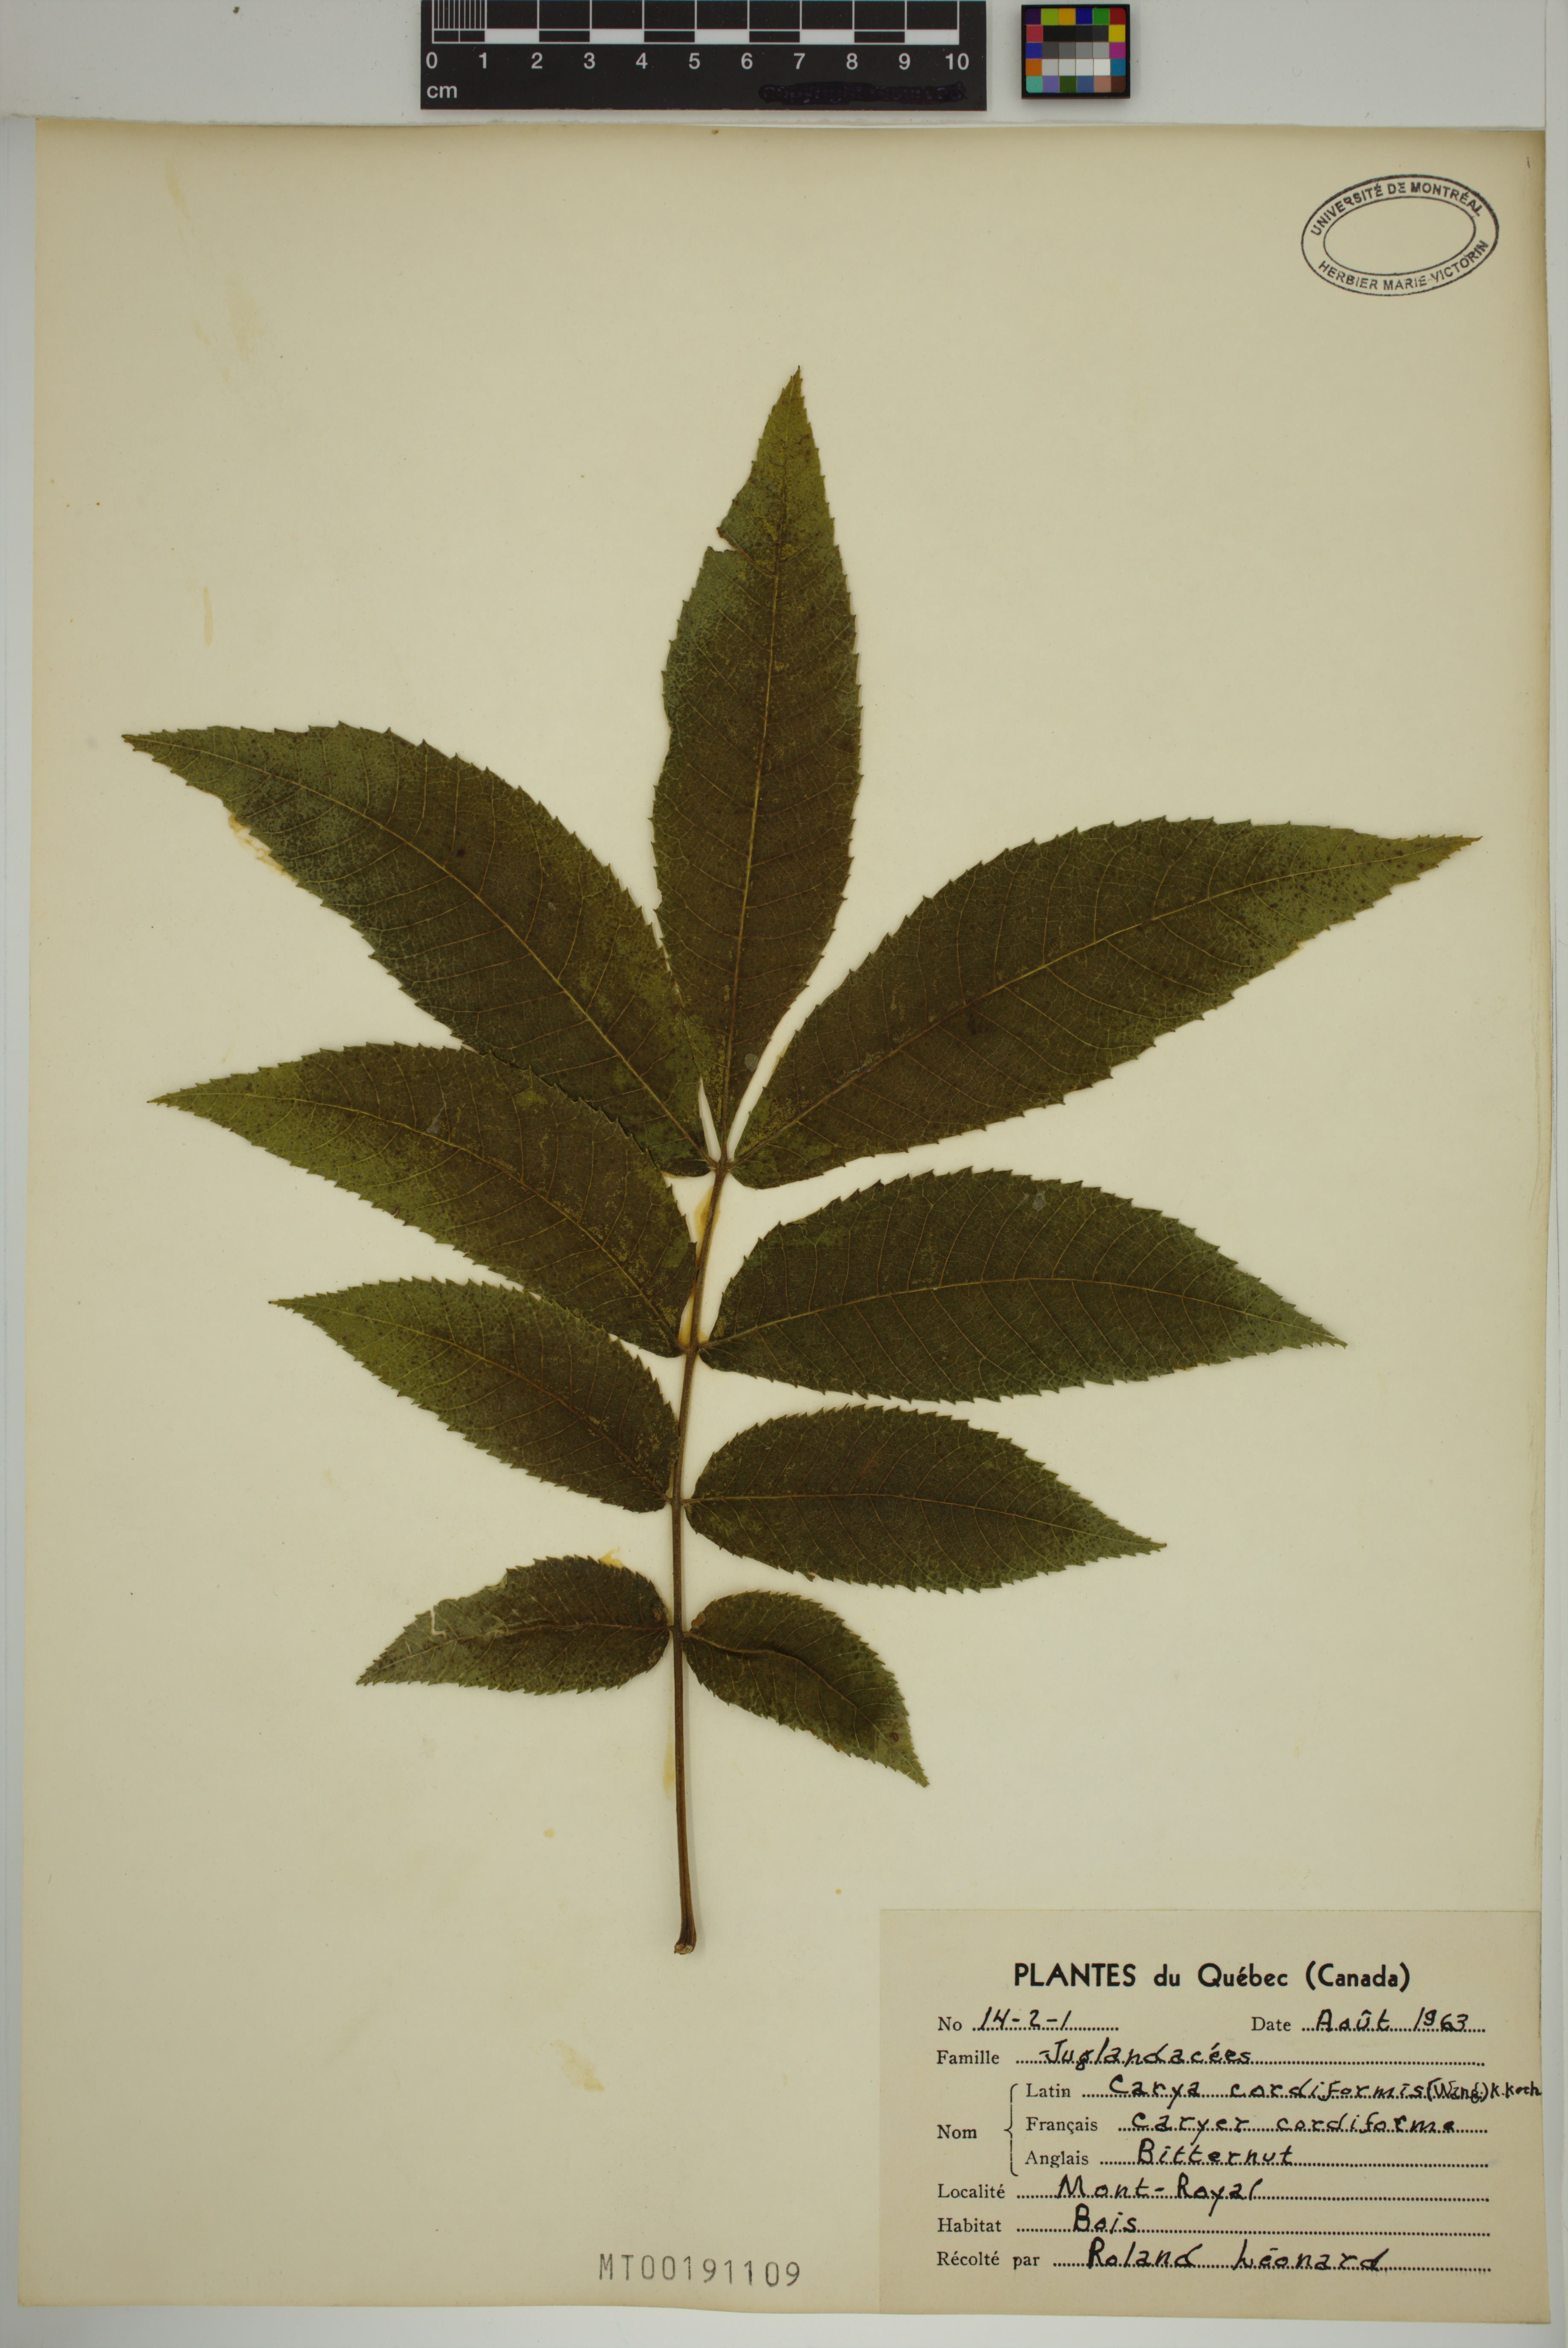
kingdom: Plantae
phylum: Tracheophyta
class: Magnoliopsida
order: Fagales
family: Juglandaceae
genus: Carya
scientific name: Carya cordiformis
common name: Bitternut hickory
